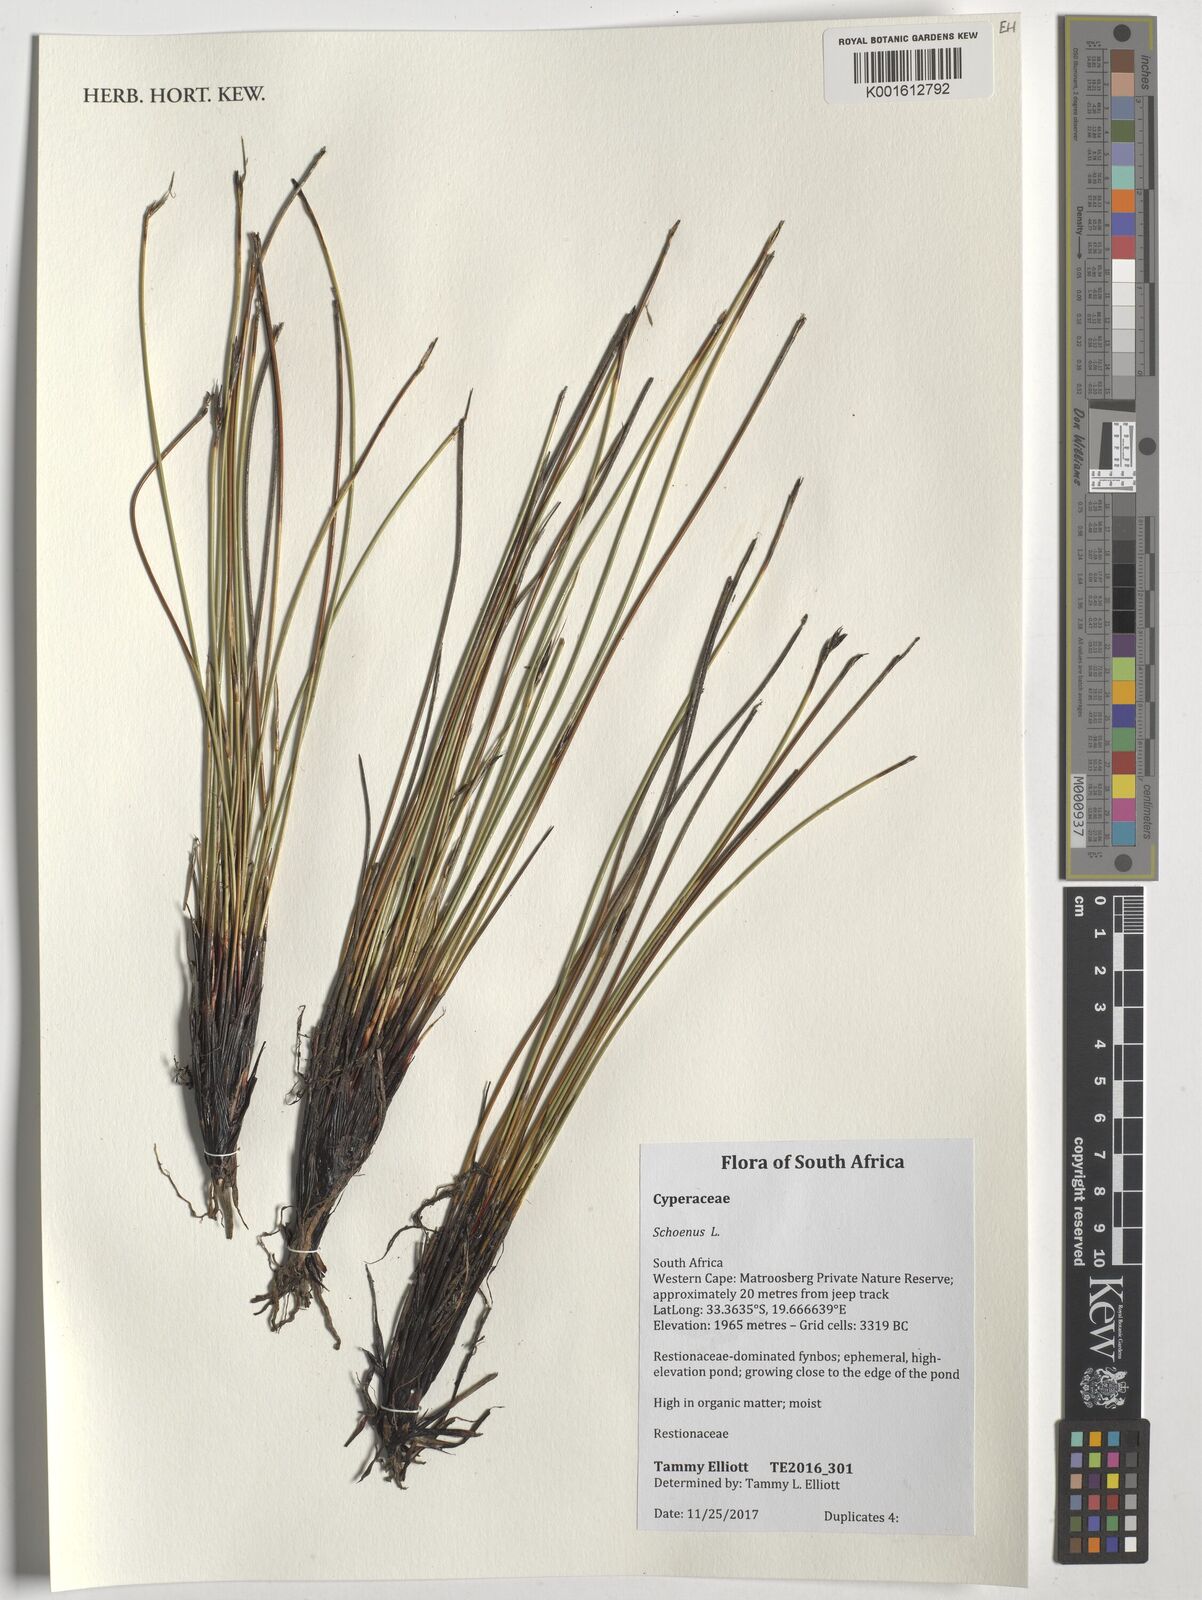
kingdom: Plantae
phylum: Tracheophyta
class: Liliopsida
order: Poales
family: Cyperaceae
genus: Schoenus
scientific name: Schoenus
